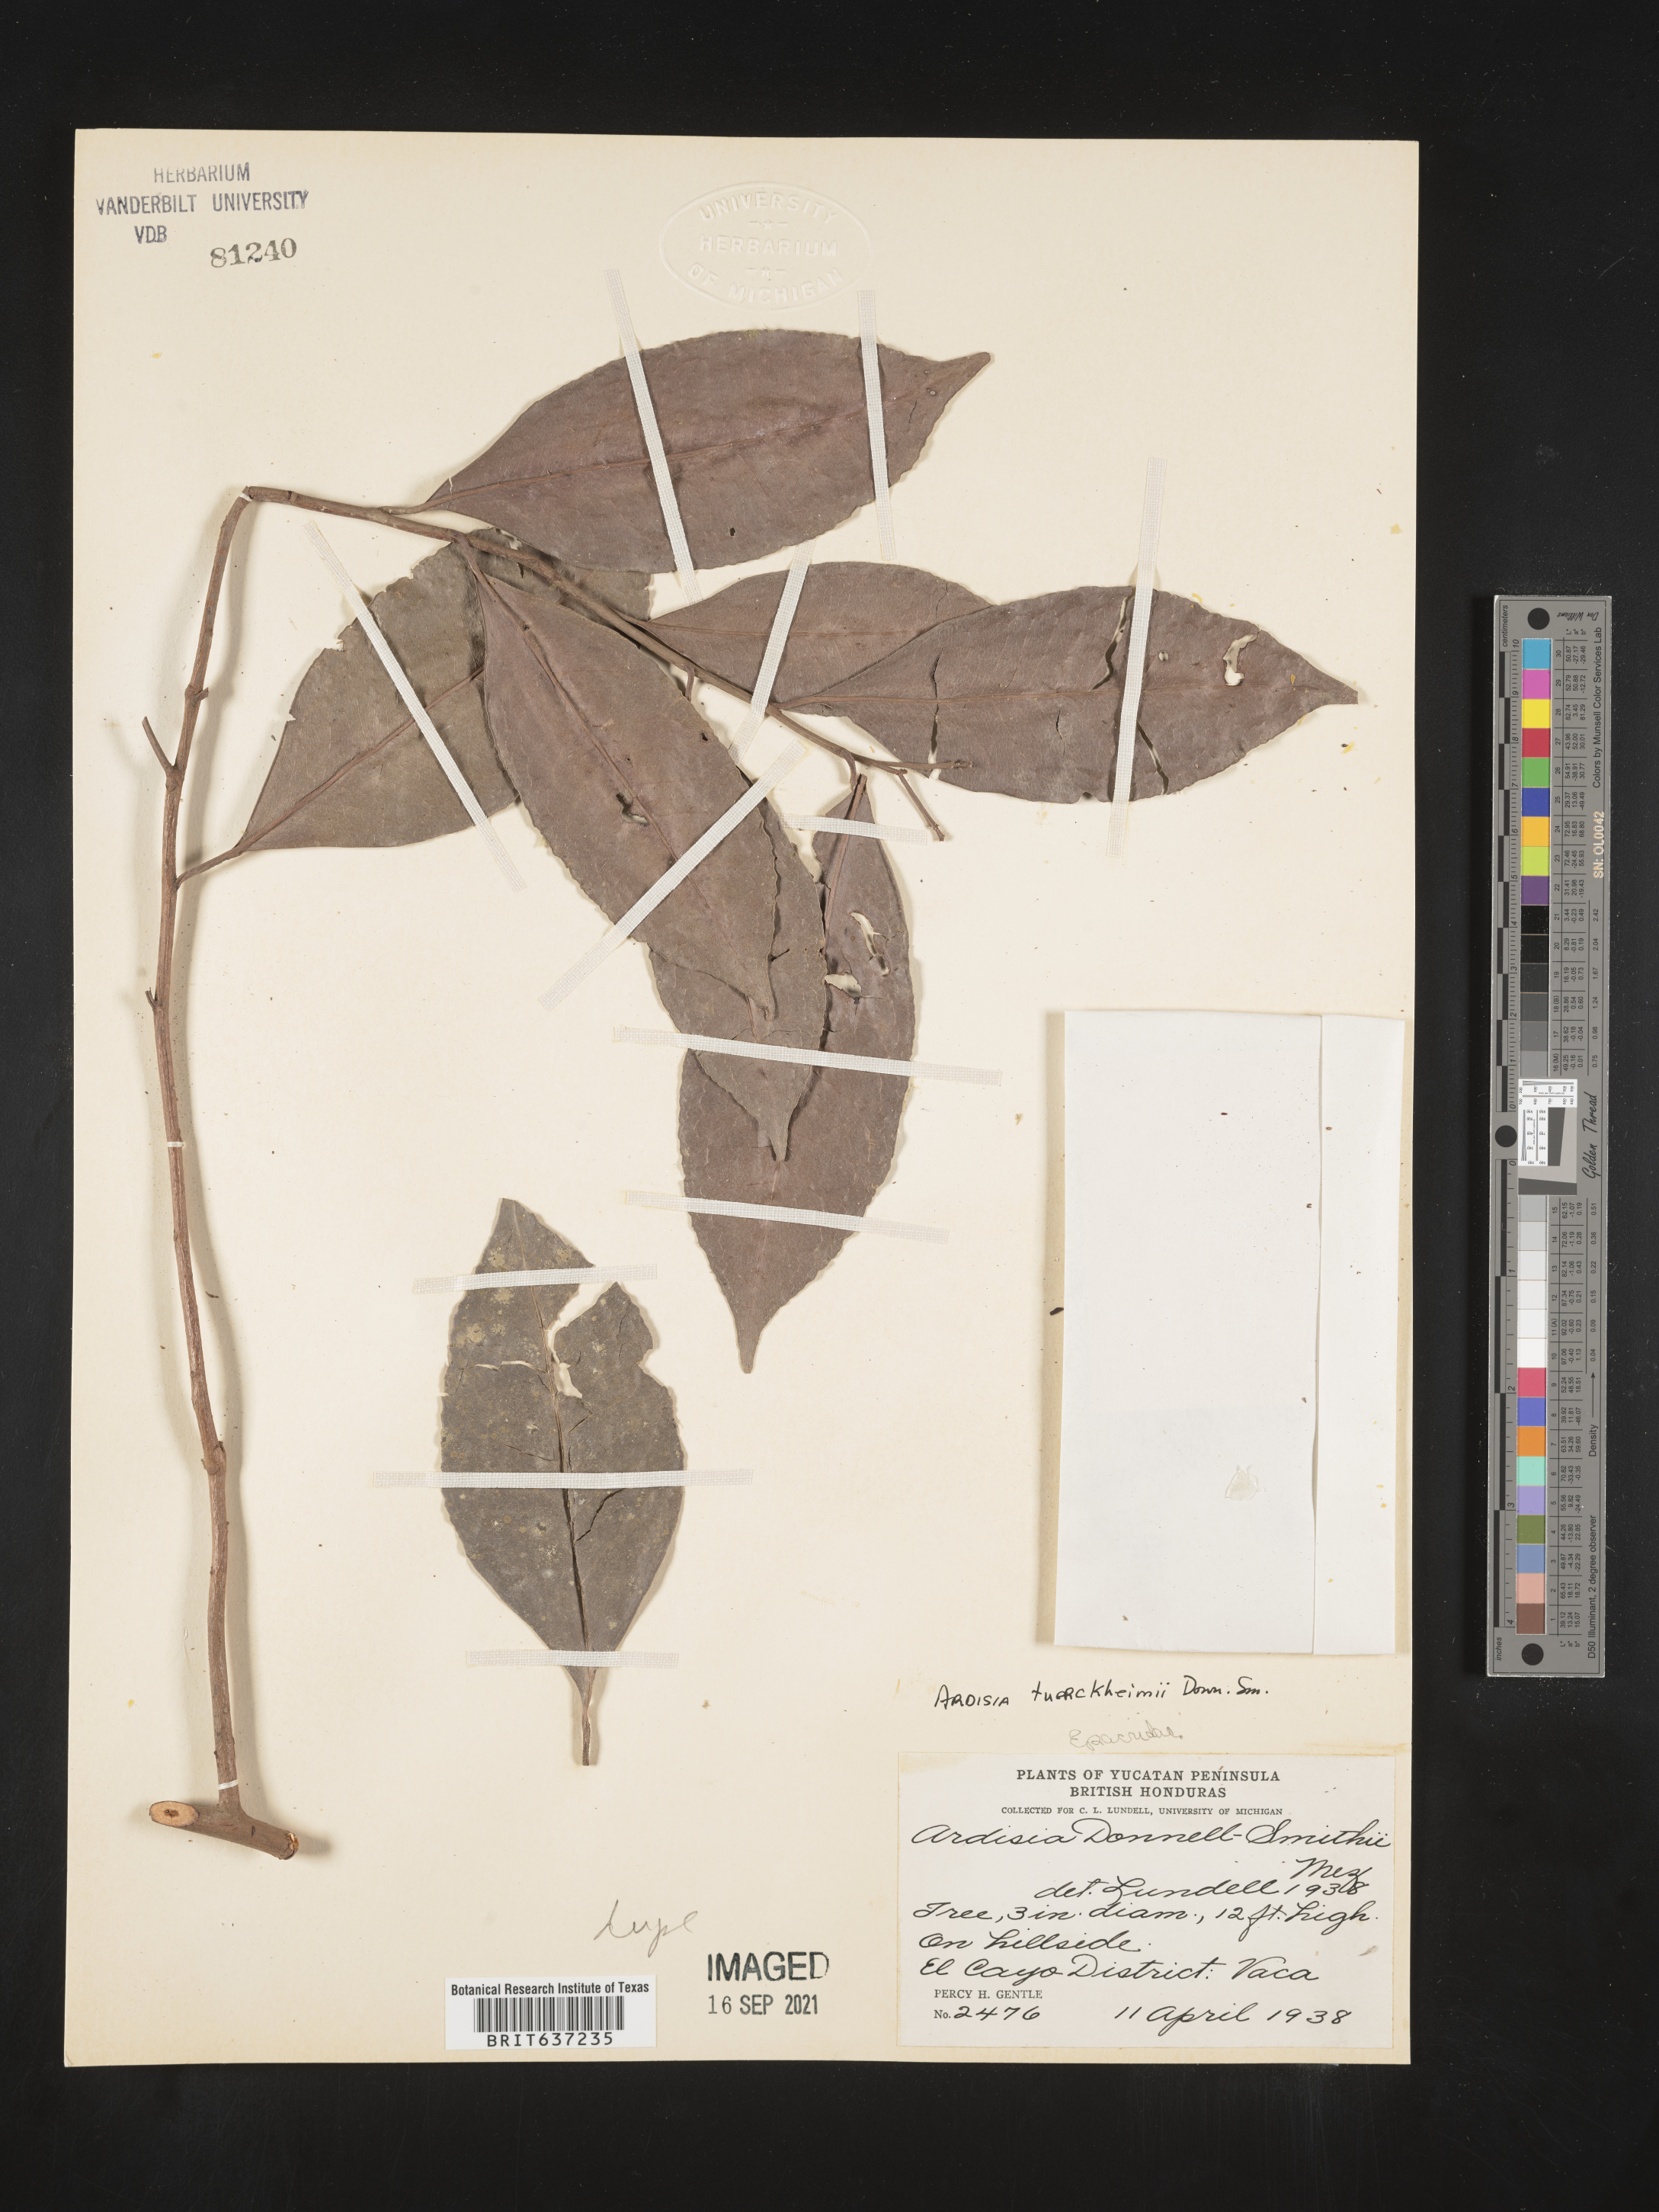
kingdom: Plantae
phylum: Tracheophyta
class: Magnoliopsida
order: Ericales
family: Primulaceae
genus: Ardisia
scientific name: Ardisia
